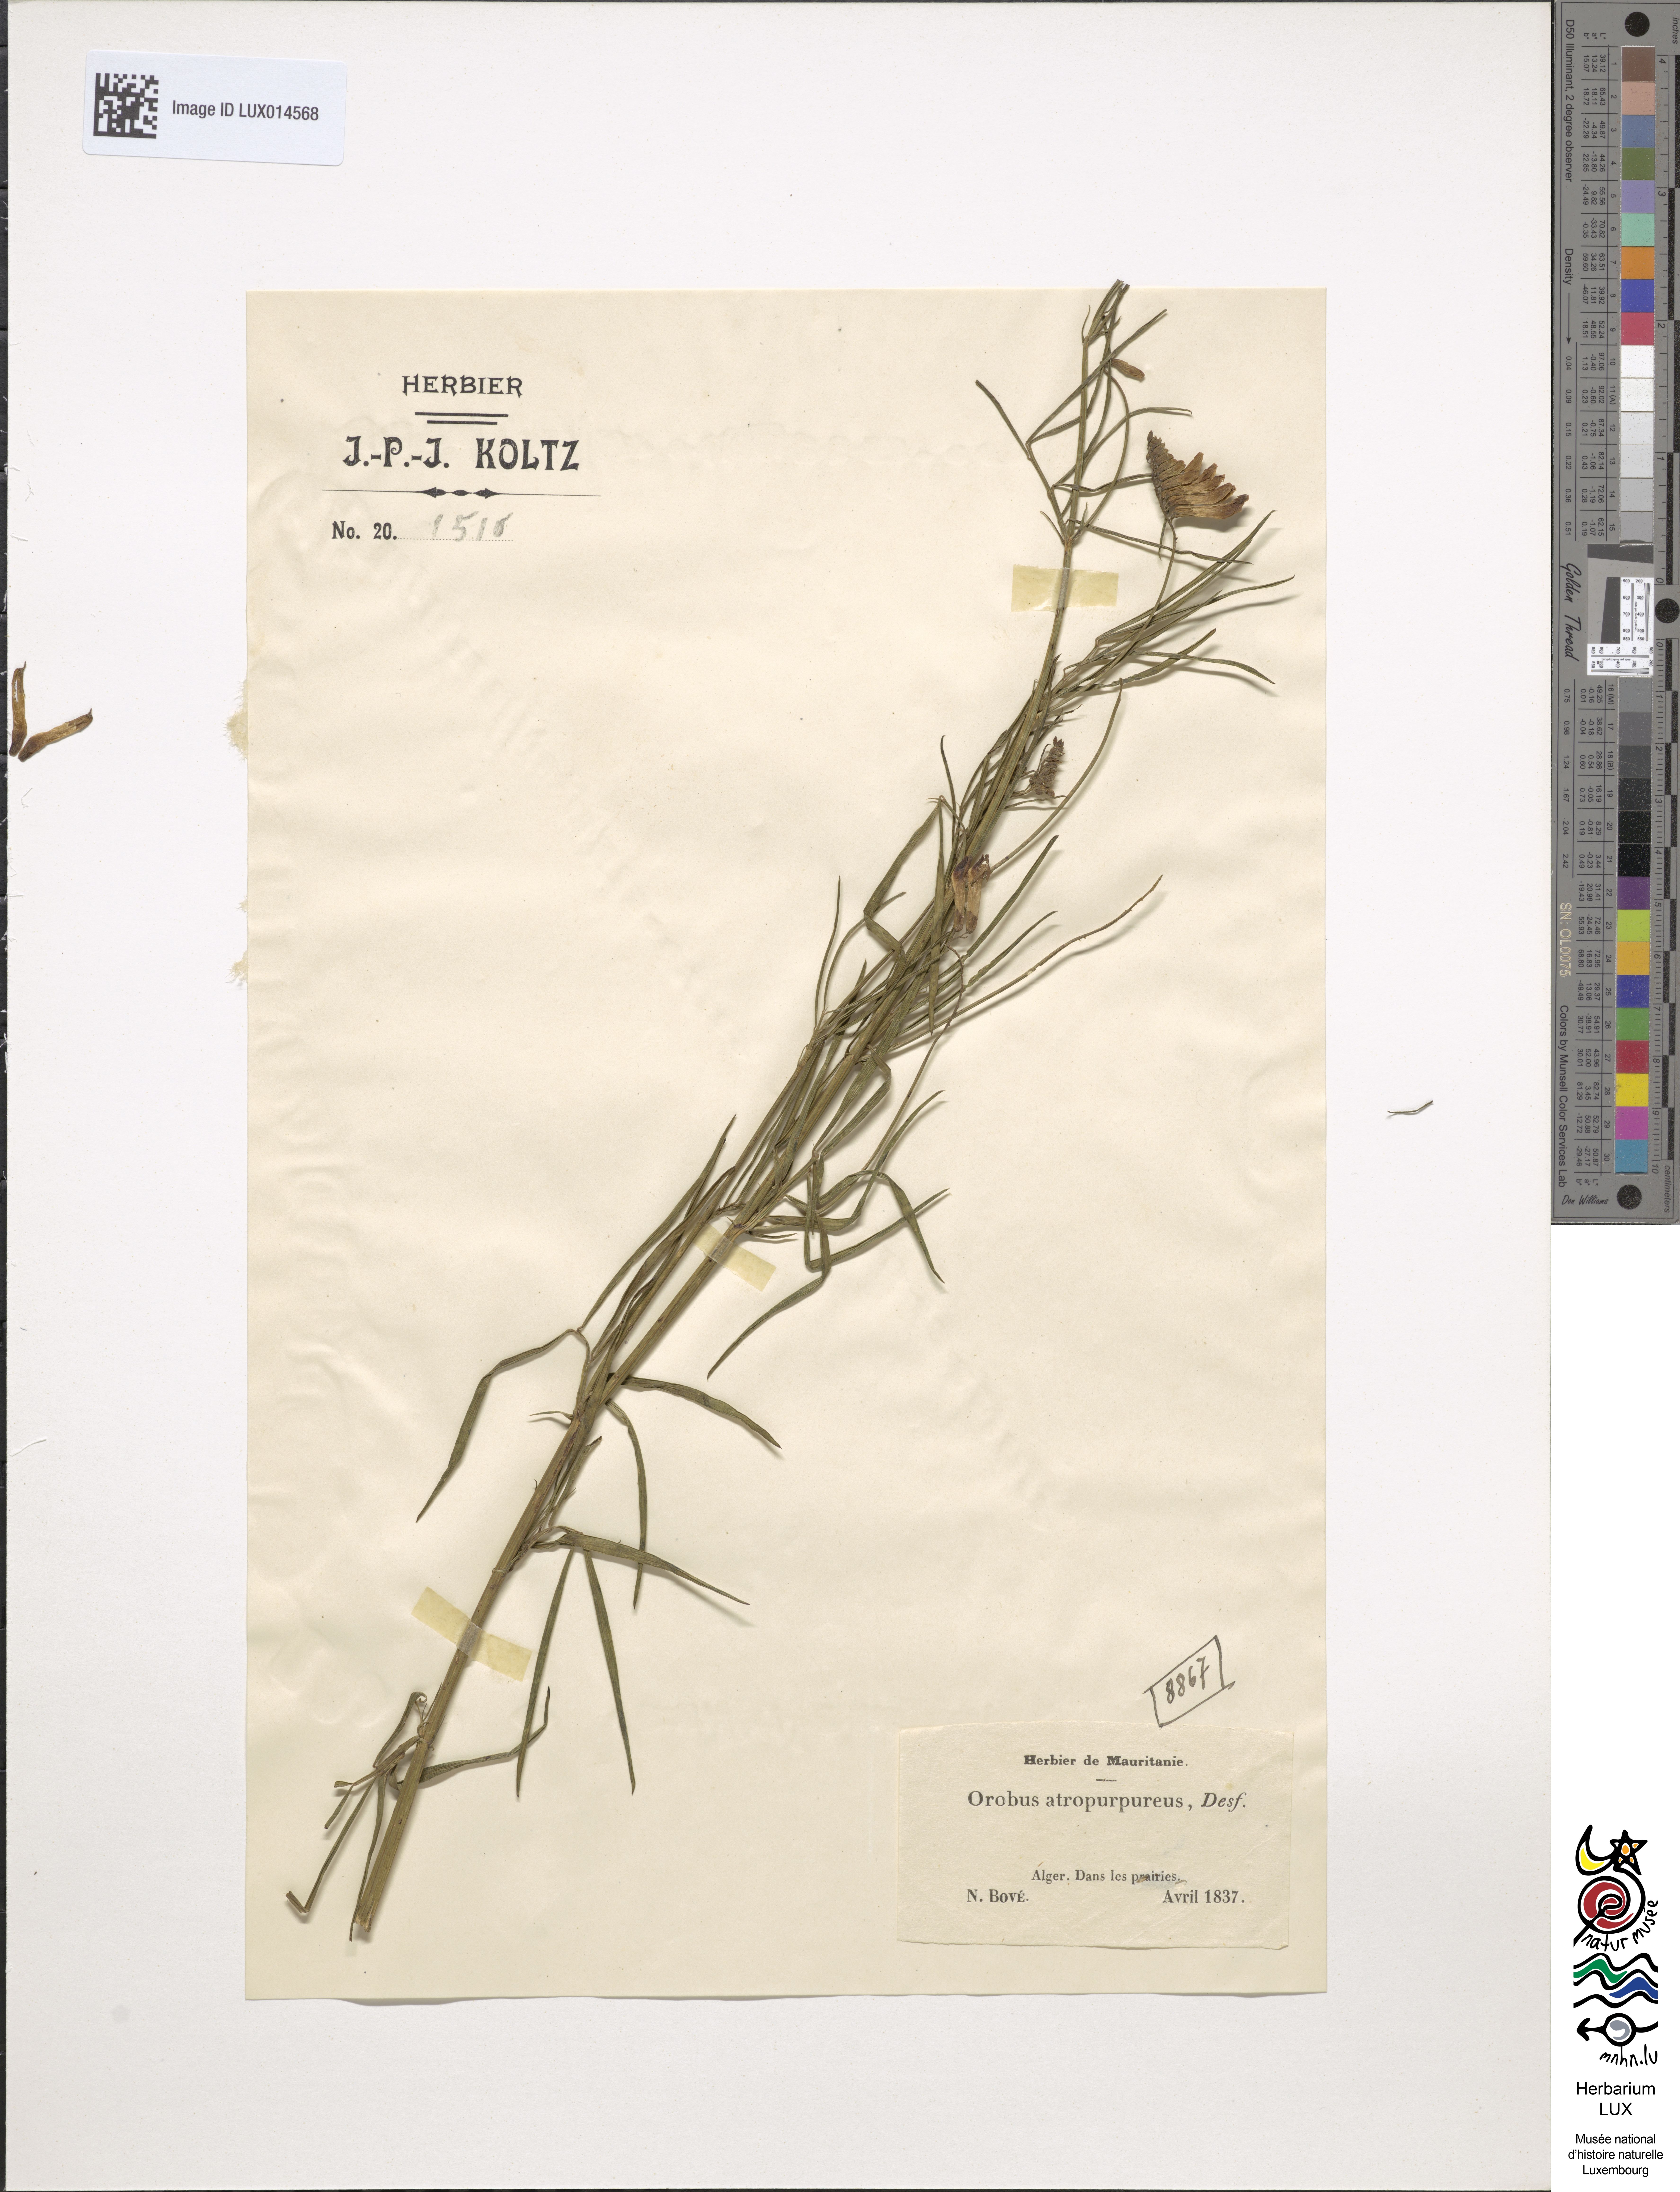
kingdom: Plantae
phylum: Tracheophyta
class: Magnoliopsida
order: Fabales
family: Fabaceae
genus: Lathyrus
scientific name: Lathyrus
